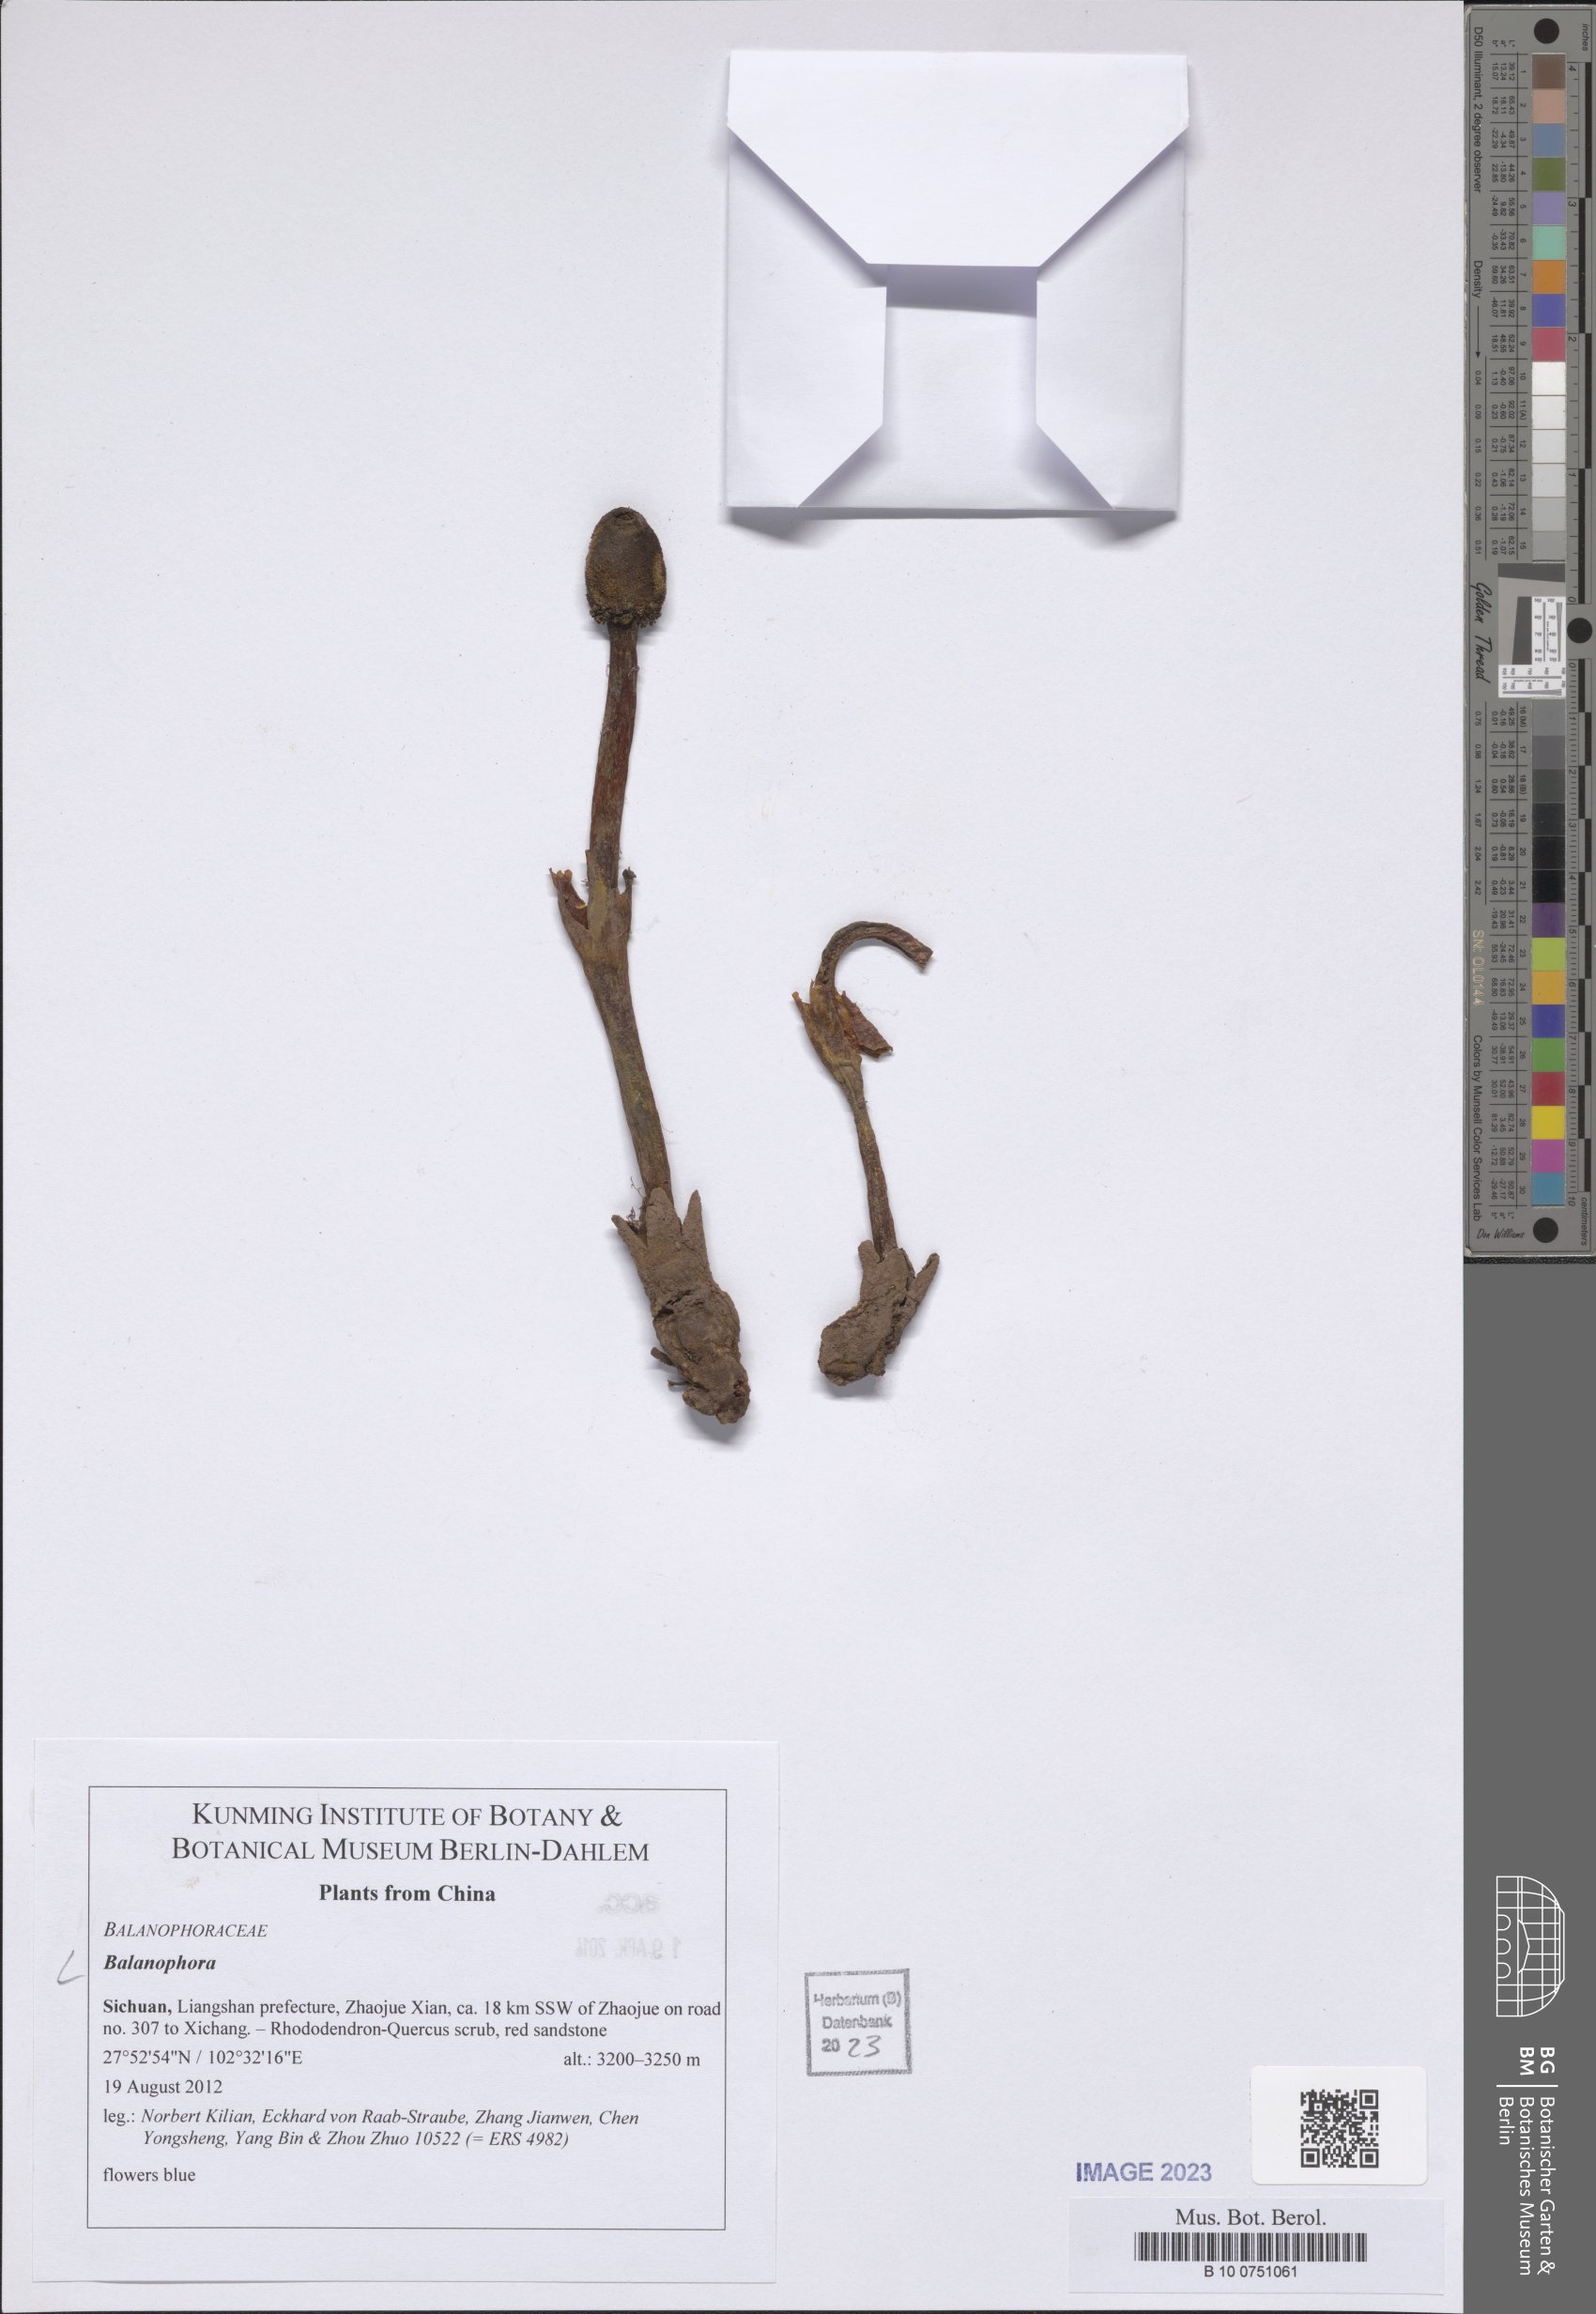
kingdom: Plantae
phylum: Tracheophyta
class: Magnoliopsida
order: Santalales
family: Balanophoraceae
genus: Balanophora
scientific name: Balanophora
